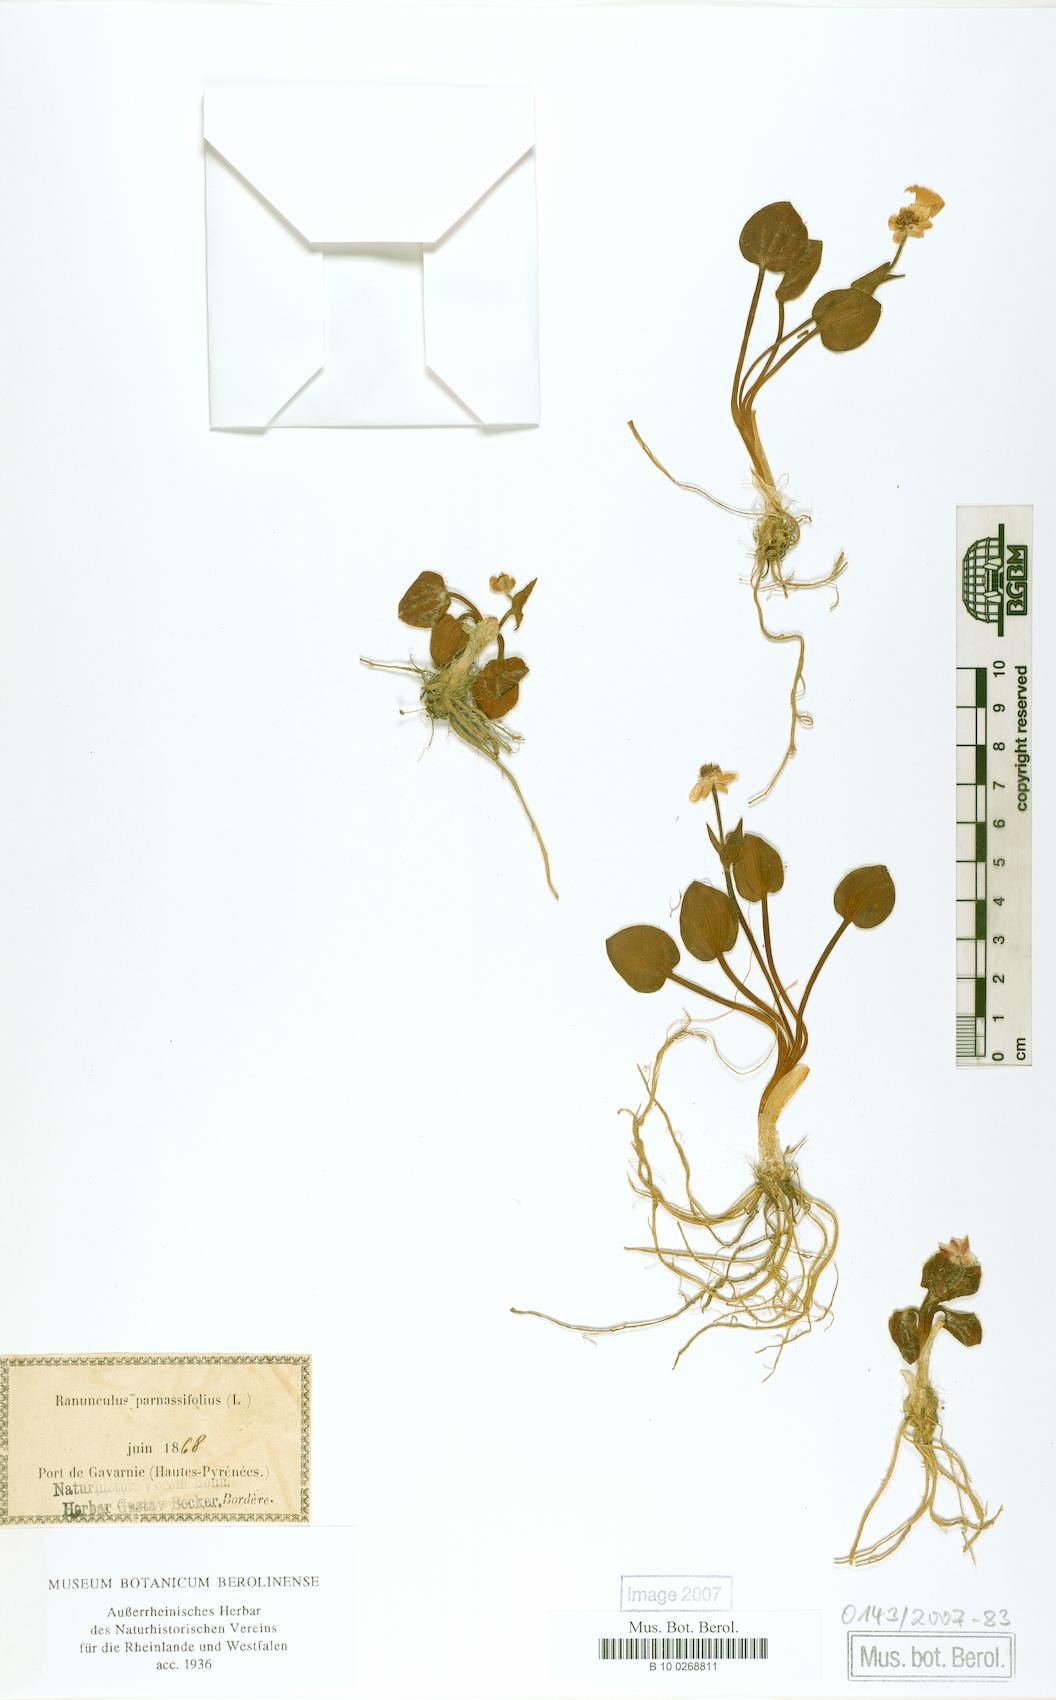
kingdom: Plantae
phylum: Tracheophyta
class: Magnoliopsida
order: Ranunculales
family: Ranunculaceae
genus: Ranunculus
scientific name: Ranunculus parnassiifolius
